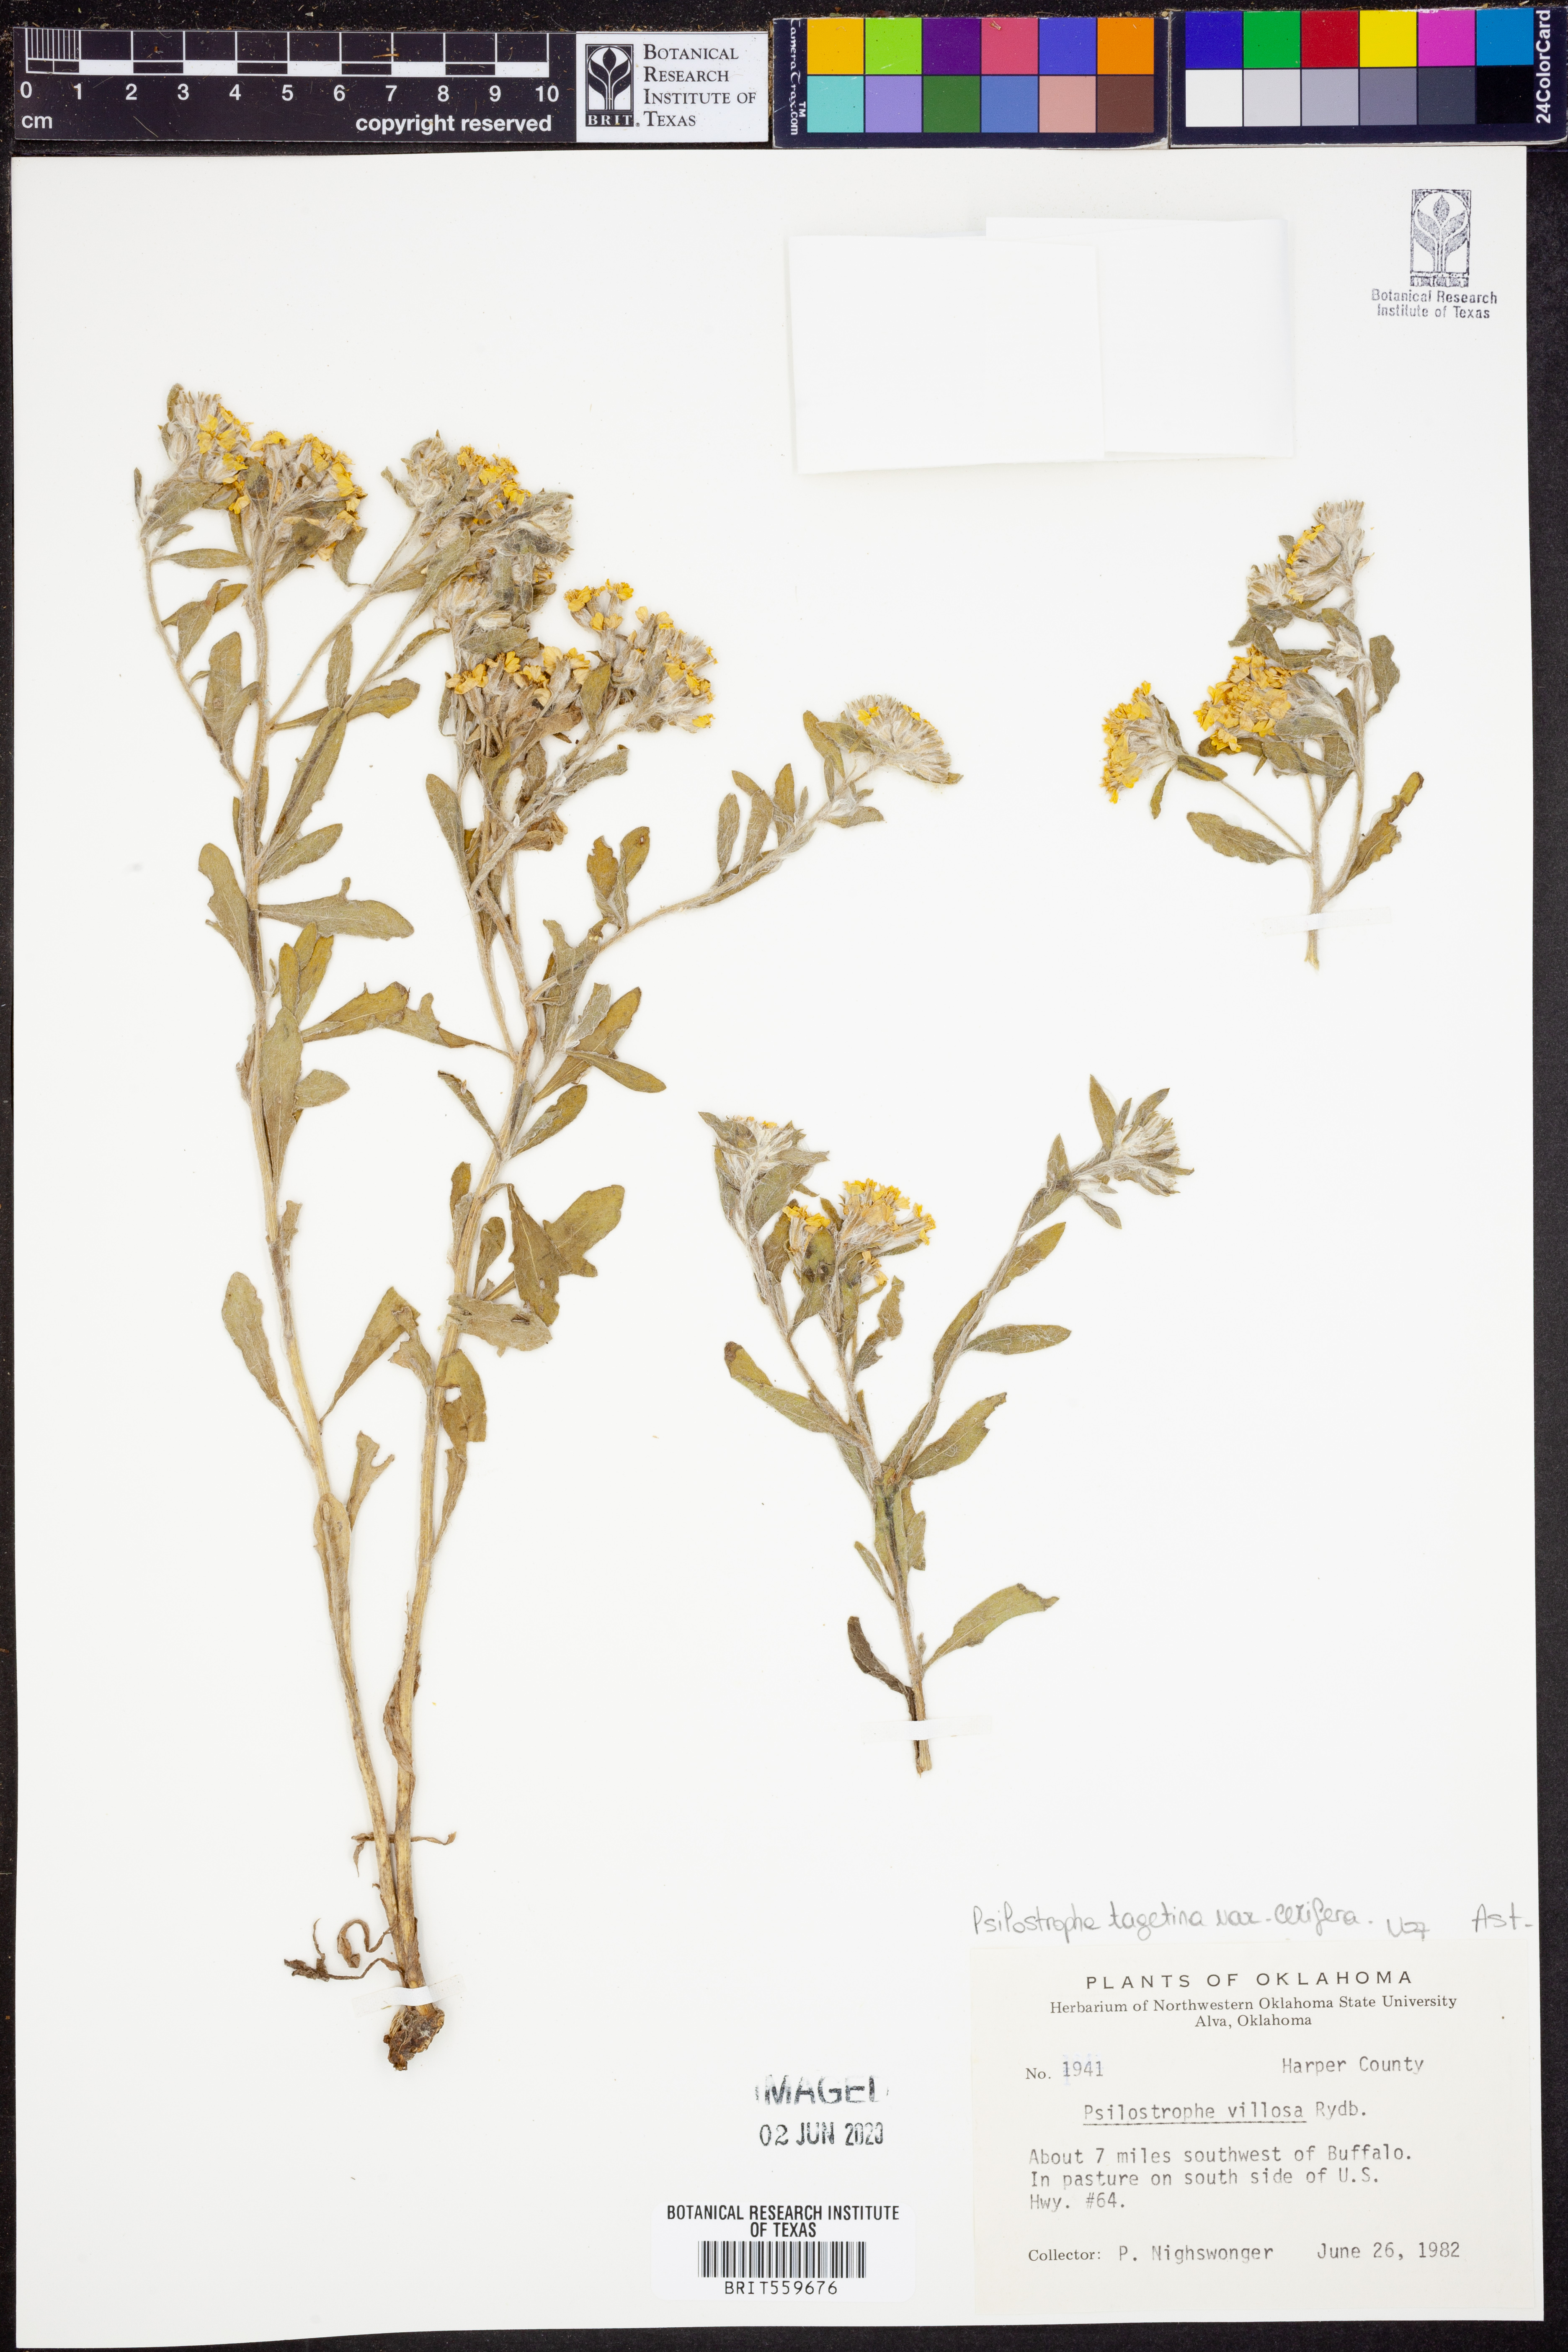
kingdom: Plantae
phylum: Tracheophyta
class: Magnoliopsida
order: Asterales
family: Asteraceae
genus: Psilostrophe
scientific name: Psilostrophe villosa
